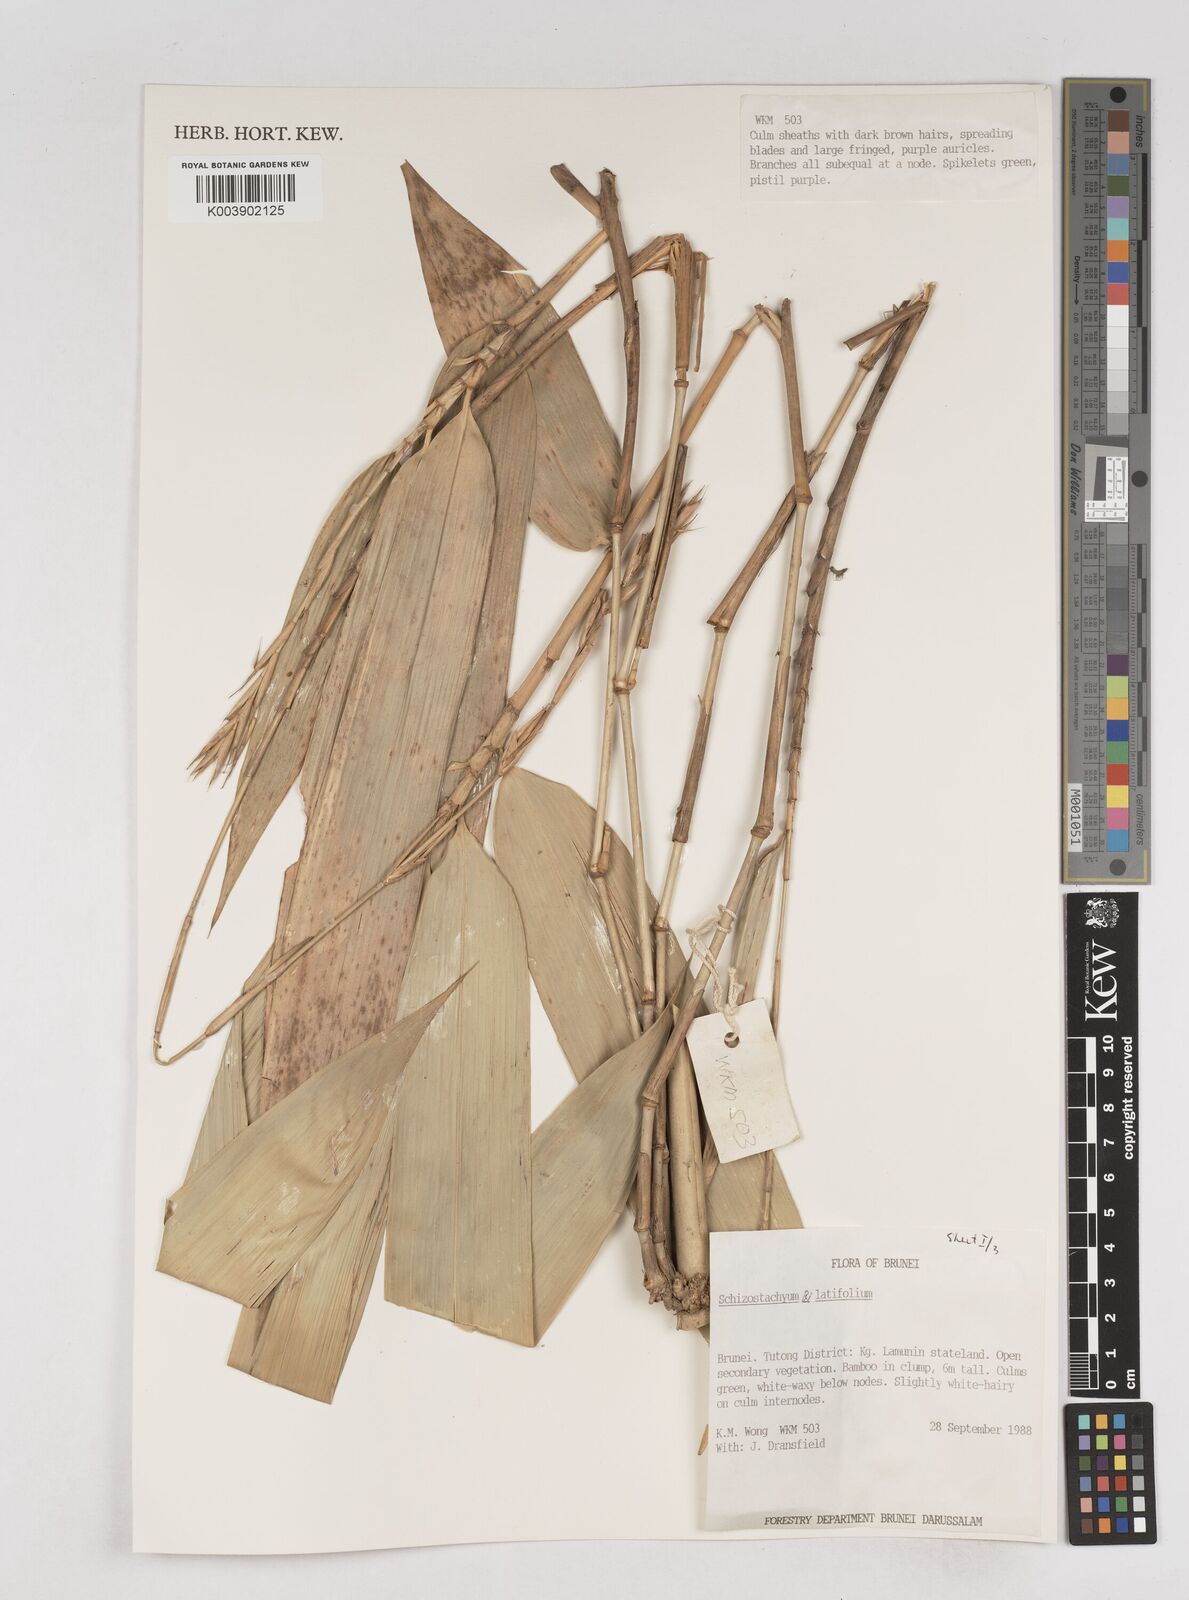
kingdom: Plantae
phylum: Tracheophyta
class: Liliopsida
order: Poales
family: Poaceae
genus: Schizostachyum
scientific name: Schizostachyum
